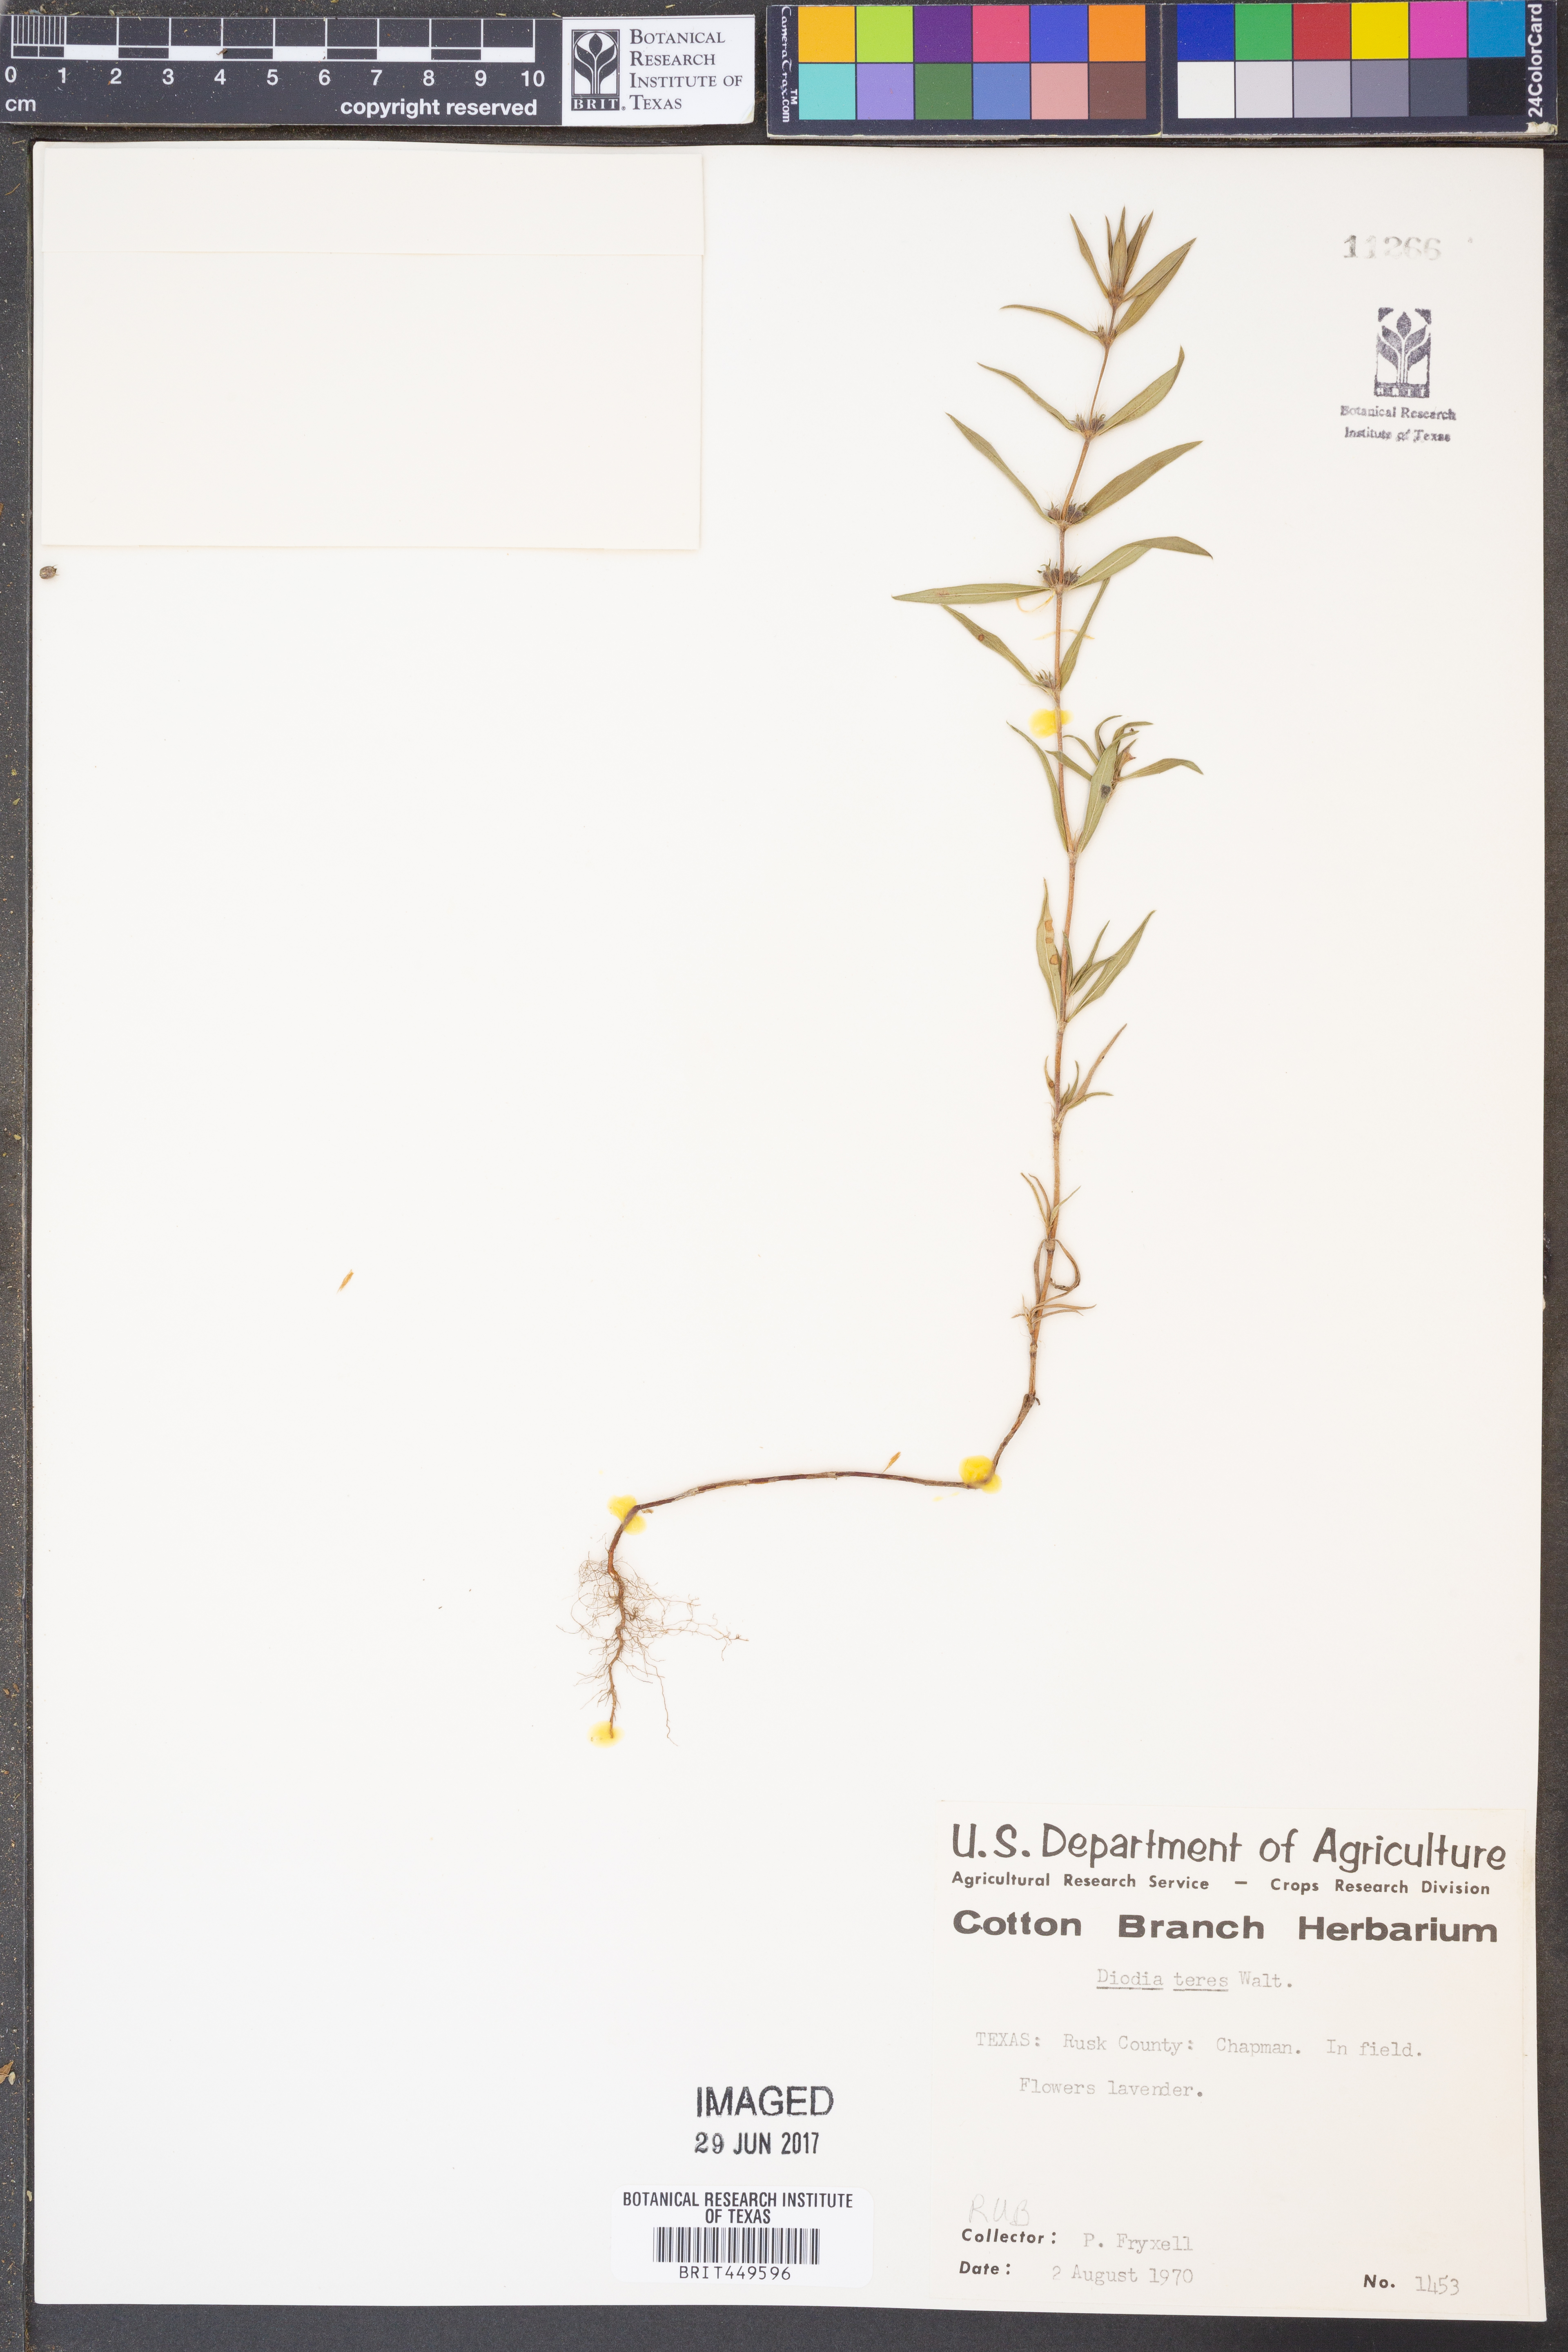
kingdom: Plantae
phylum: Tracheophyta
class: Magnoliopsida
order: Gentianales
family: Rubiaceae
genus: Hexasepalum
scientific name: Hexasepalum teres
